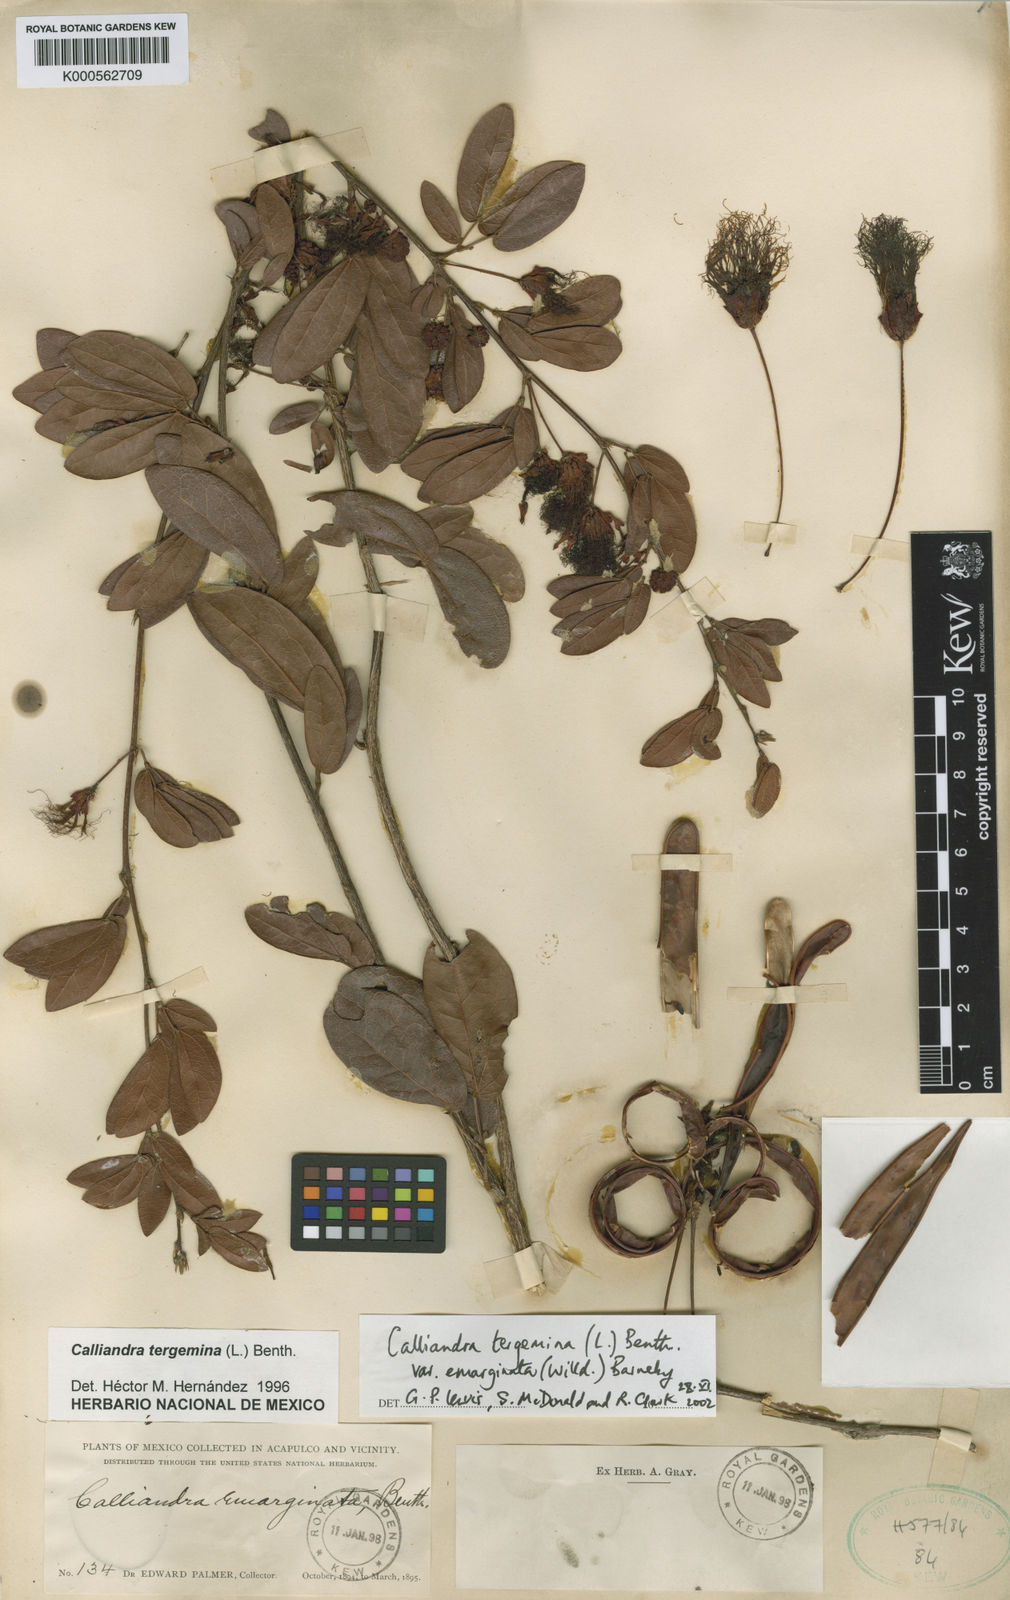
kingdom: Plantae
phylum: Tracheophyta
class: Magnoliopsida
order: Fabales
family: Fabaceae
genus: Calliandra
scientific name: Calliandra tergemina
